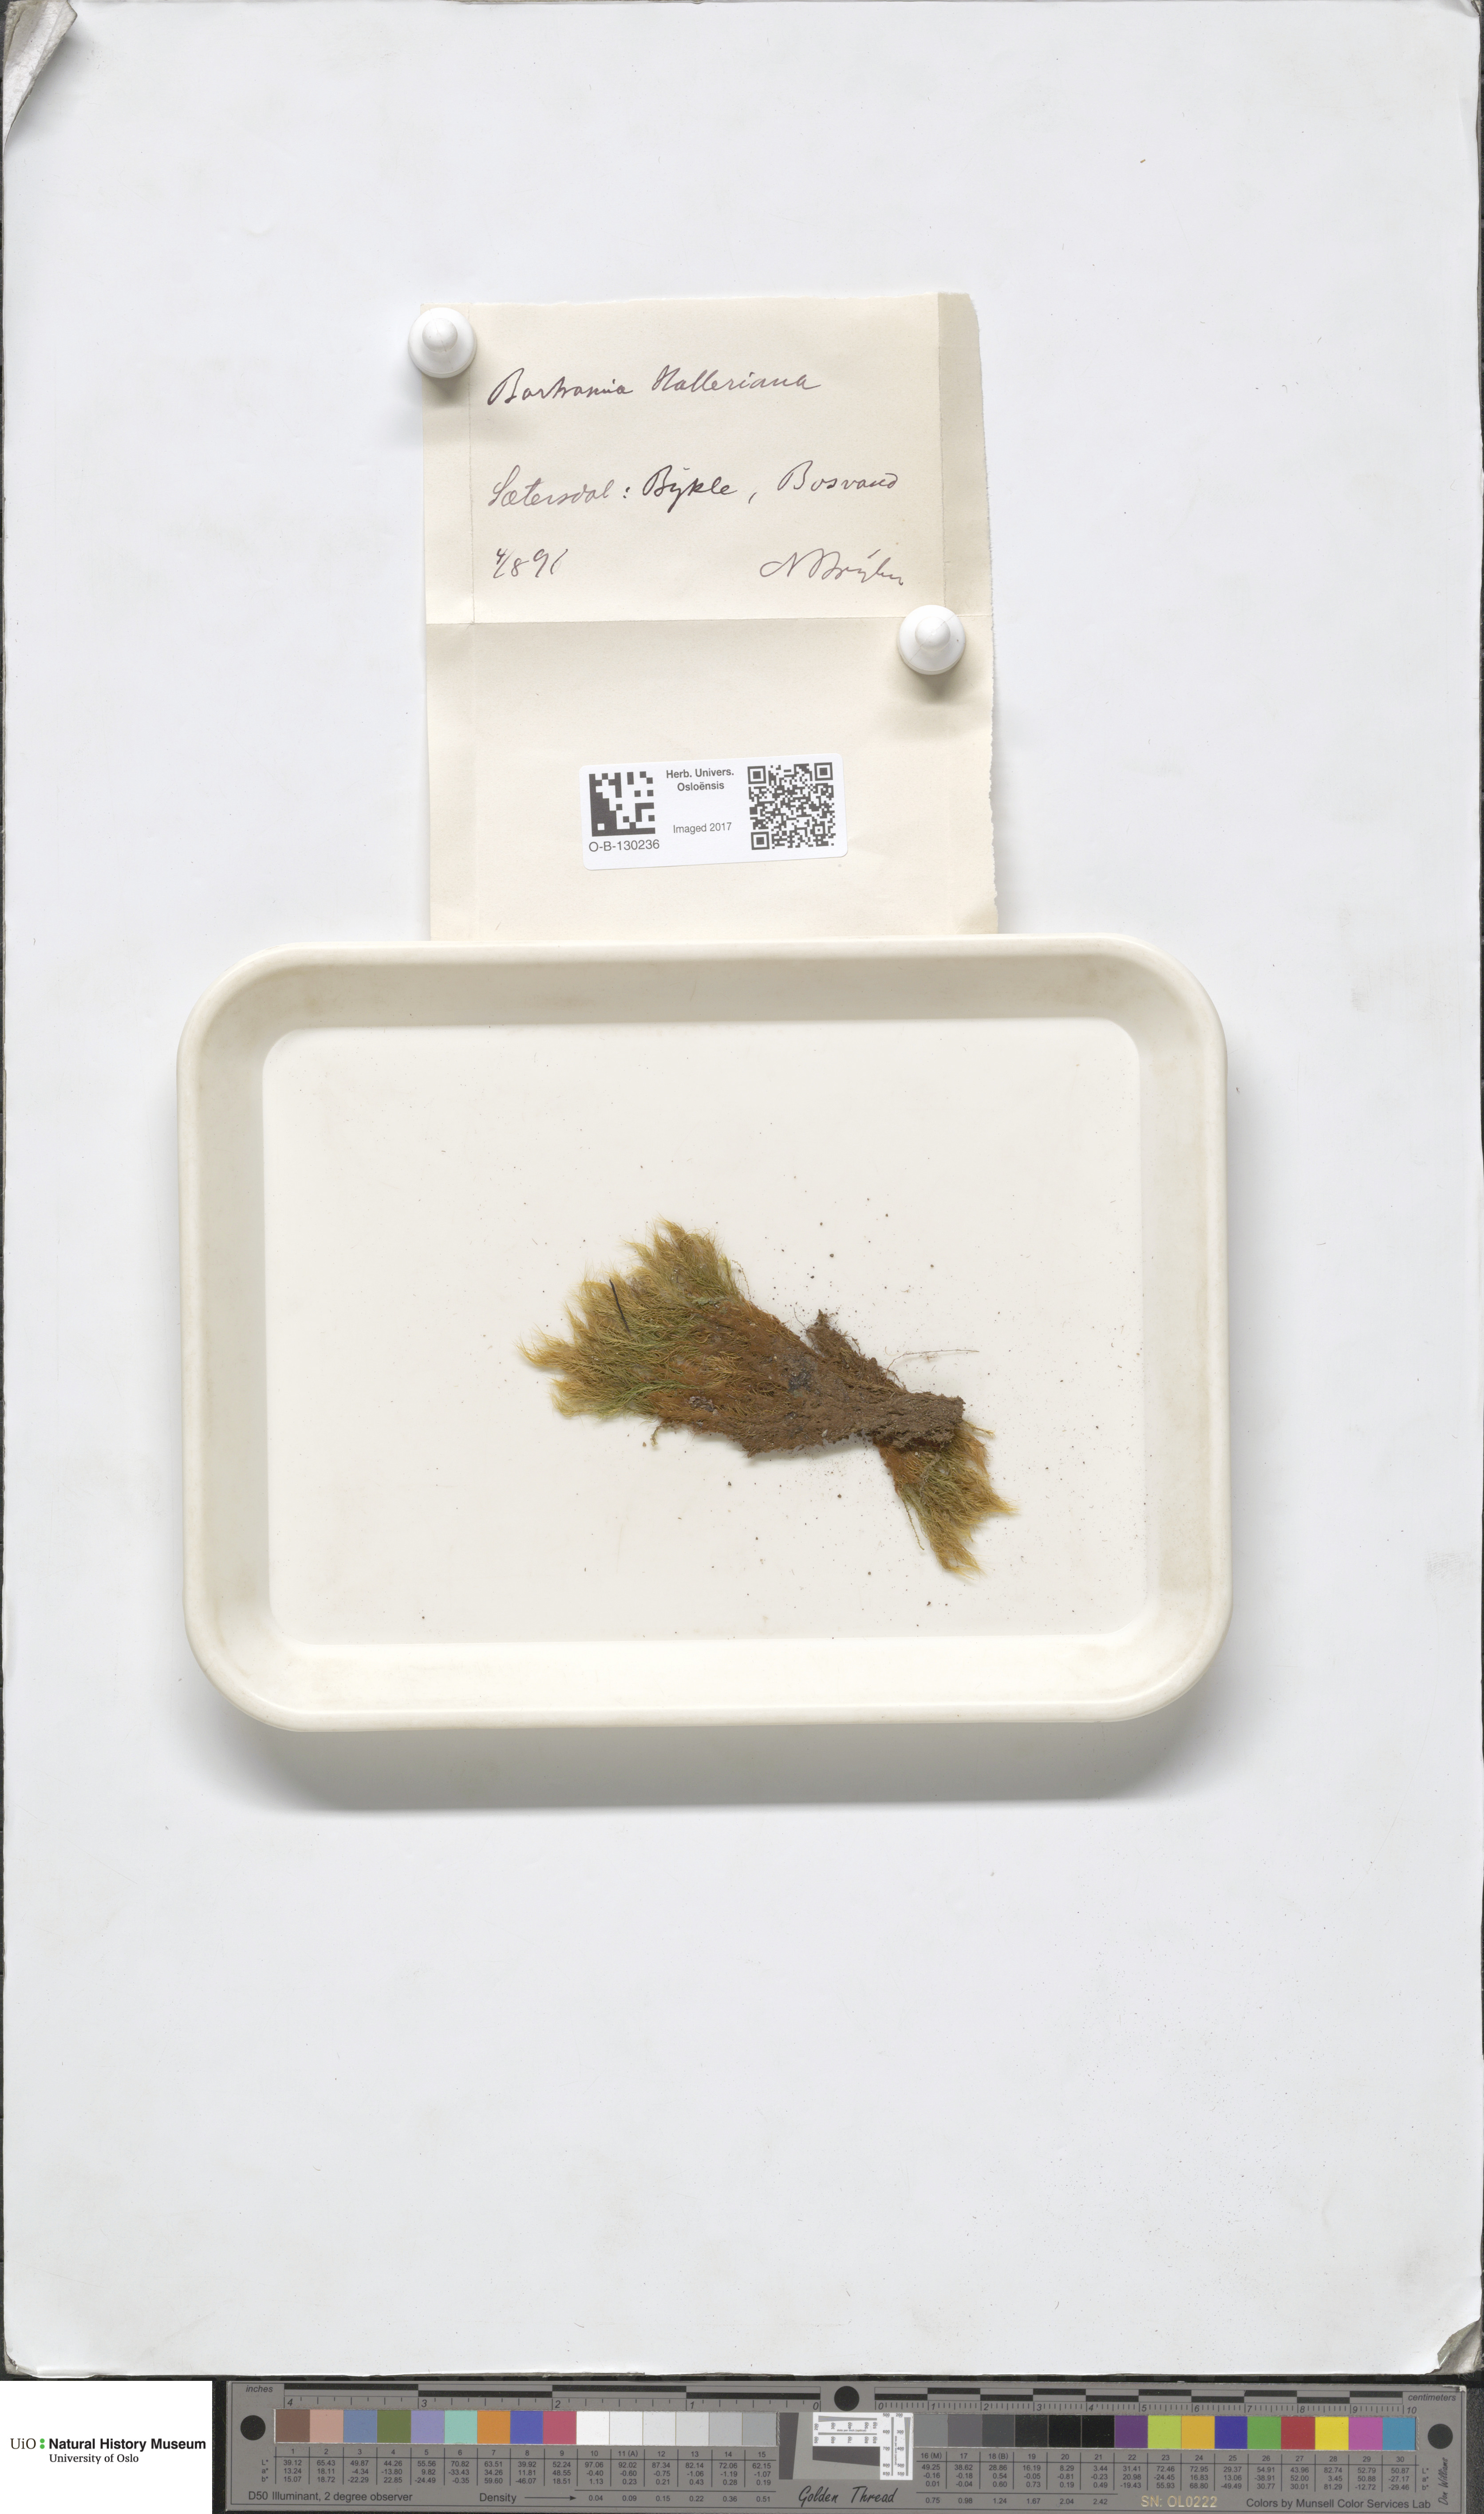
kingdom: Plantae
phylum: Bryophyta
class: Bryopsida
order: Bartramiales
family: Bartramiaceae
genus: Bartramia
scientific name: Bartramia halleriana
